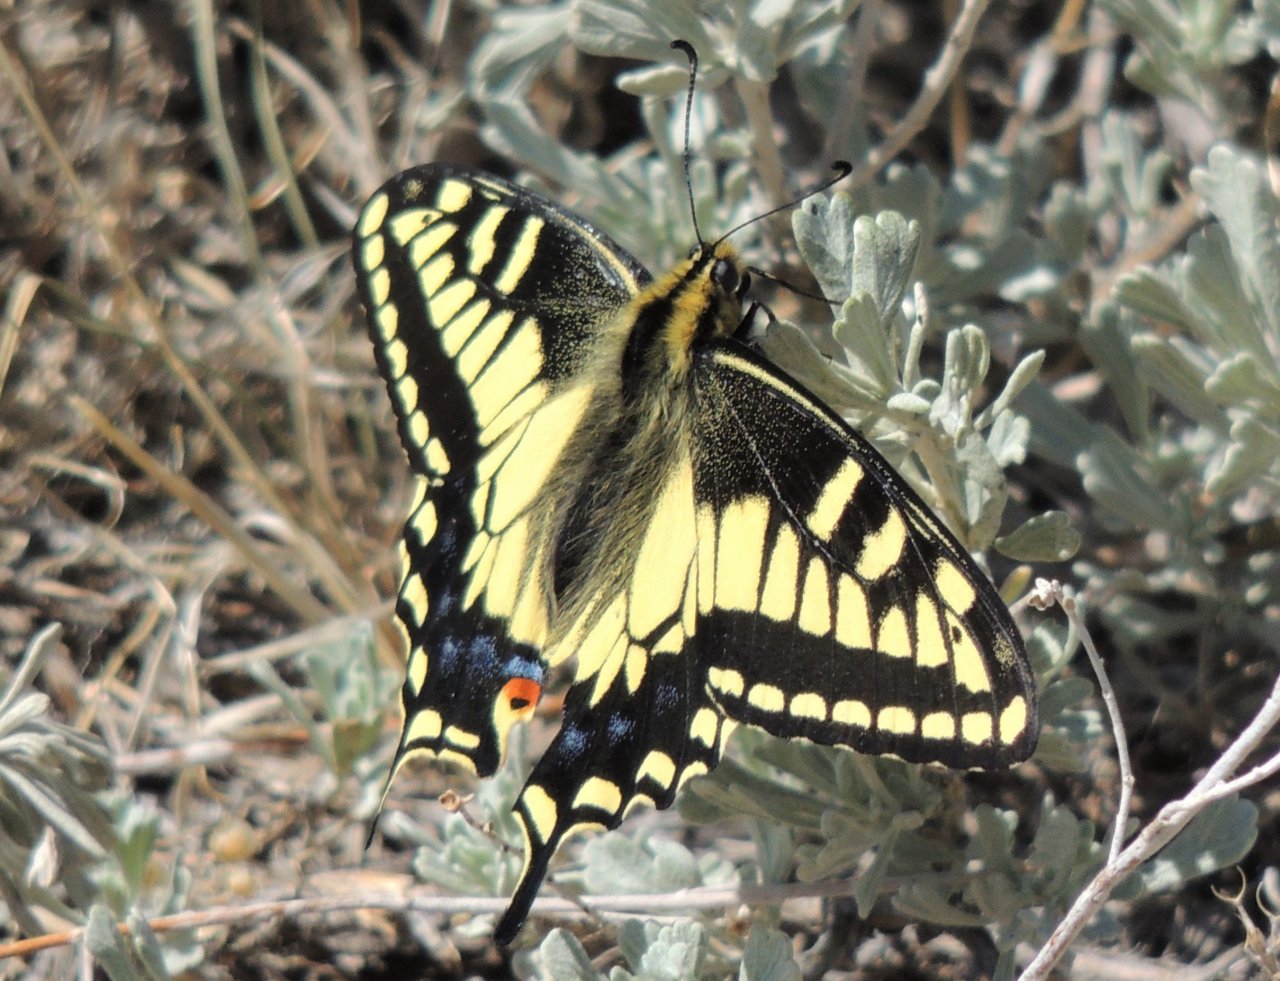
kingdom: Animalia
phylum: Arthropoda
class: Insecta
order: Lepidoptera
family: Papilionidae
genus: Papilio
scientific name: Papilio zelicaon
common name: Anise Swallowtail
